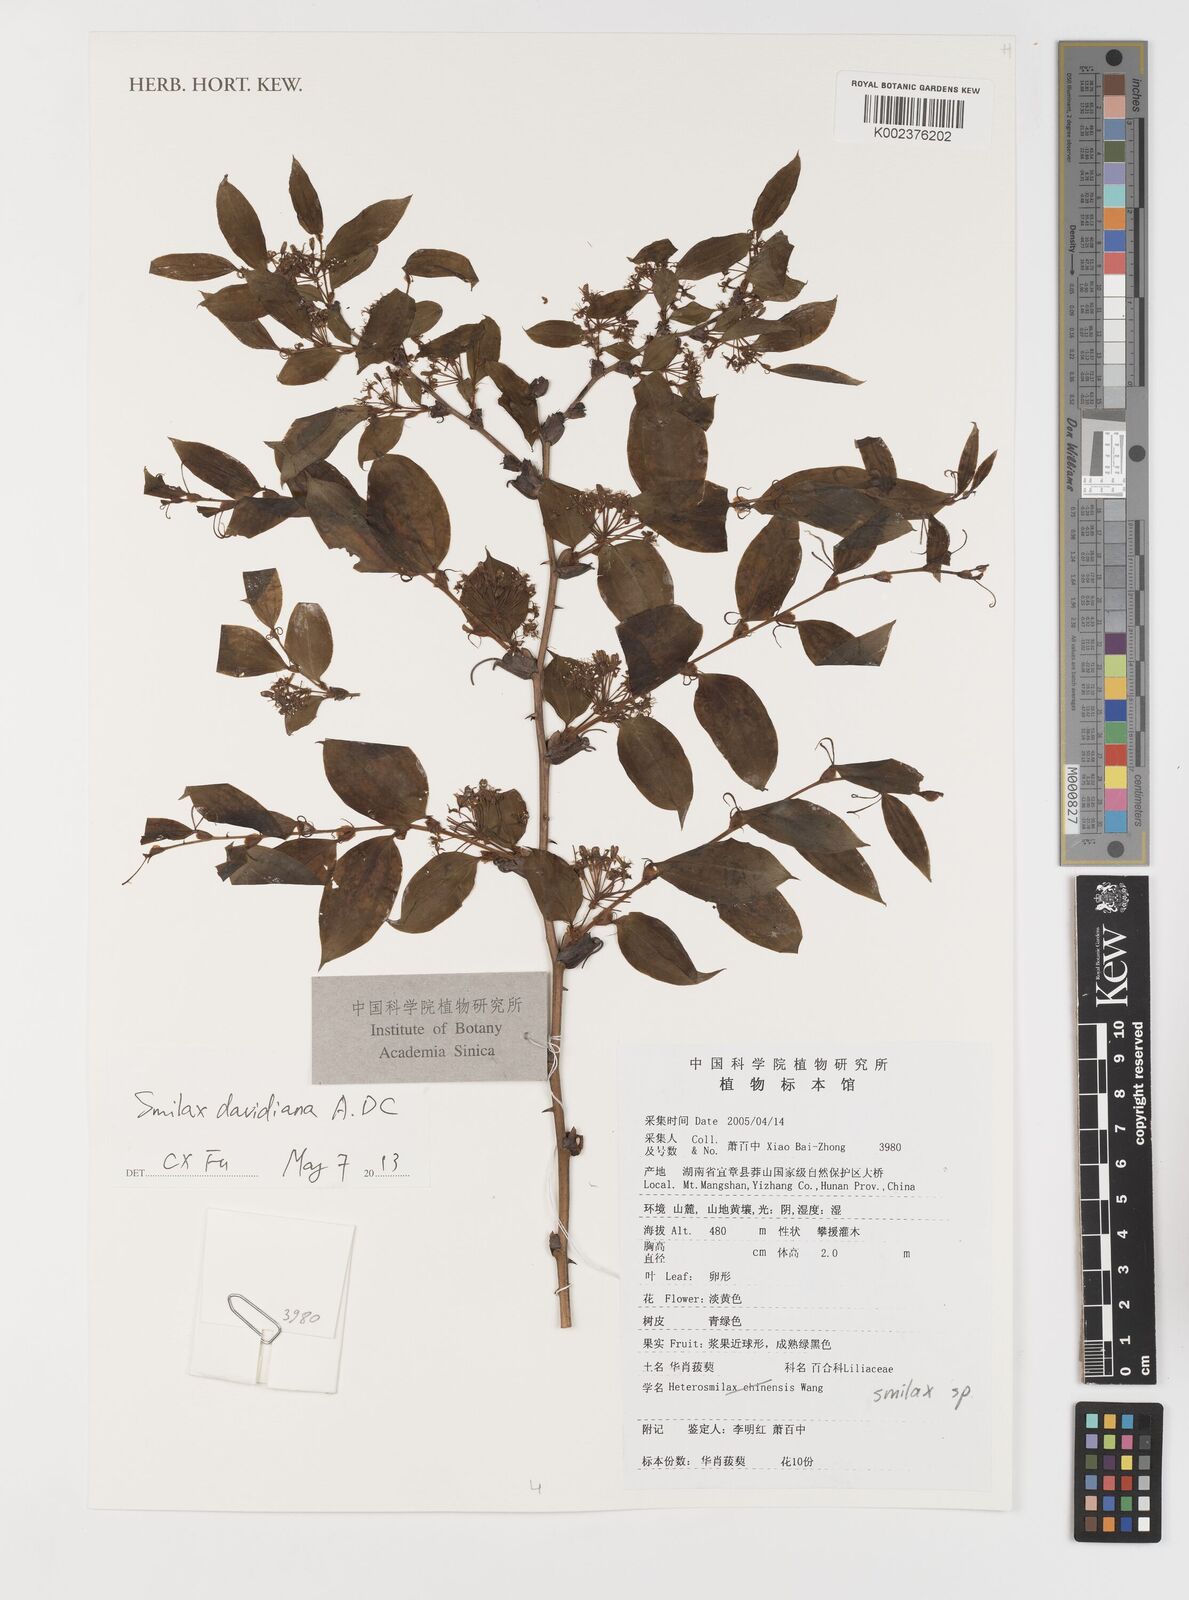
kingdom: Plantae
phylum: Tracheophyta
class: Liliopsida
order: Liliales
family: Smilacaceae
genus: Smilax
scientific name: Smilax davidiana
